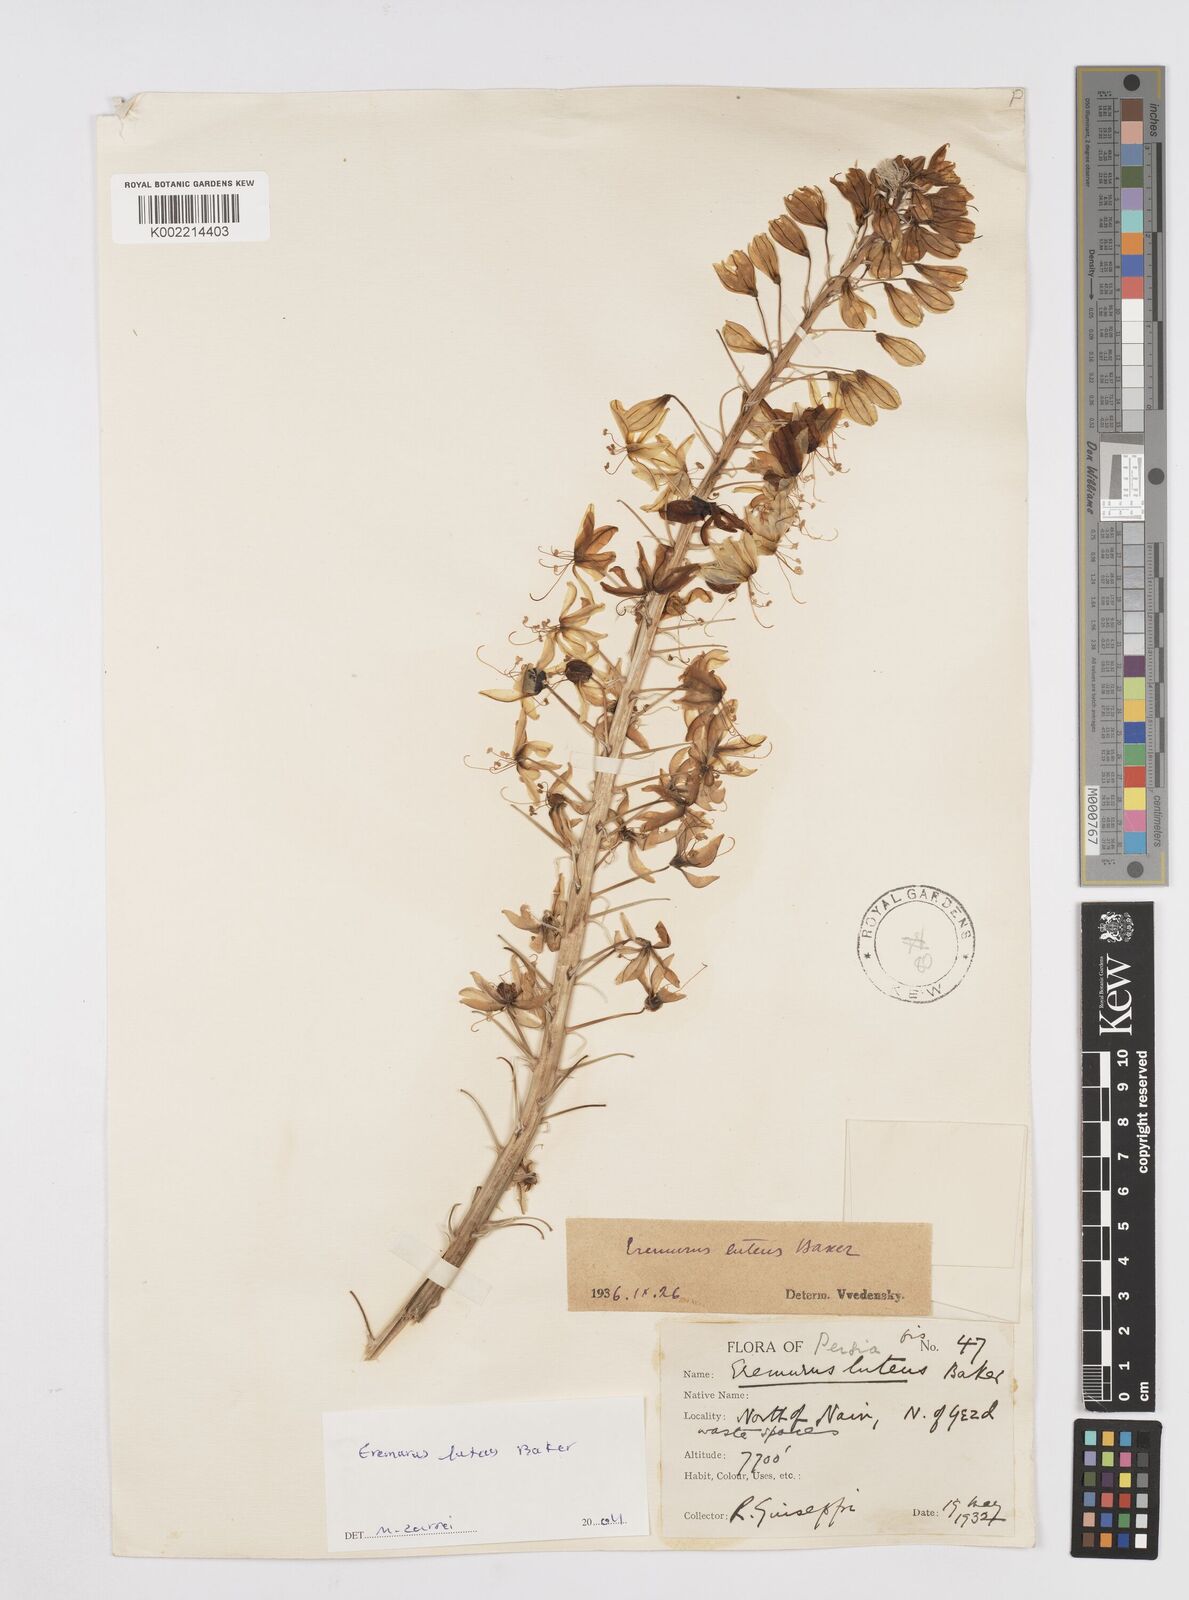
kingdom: Plantae
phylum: Tracheophyta
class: Liliopsida
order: Asparagales
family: Asphodelaceae
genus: Eremurus
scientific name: Eremurus luteus
